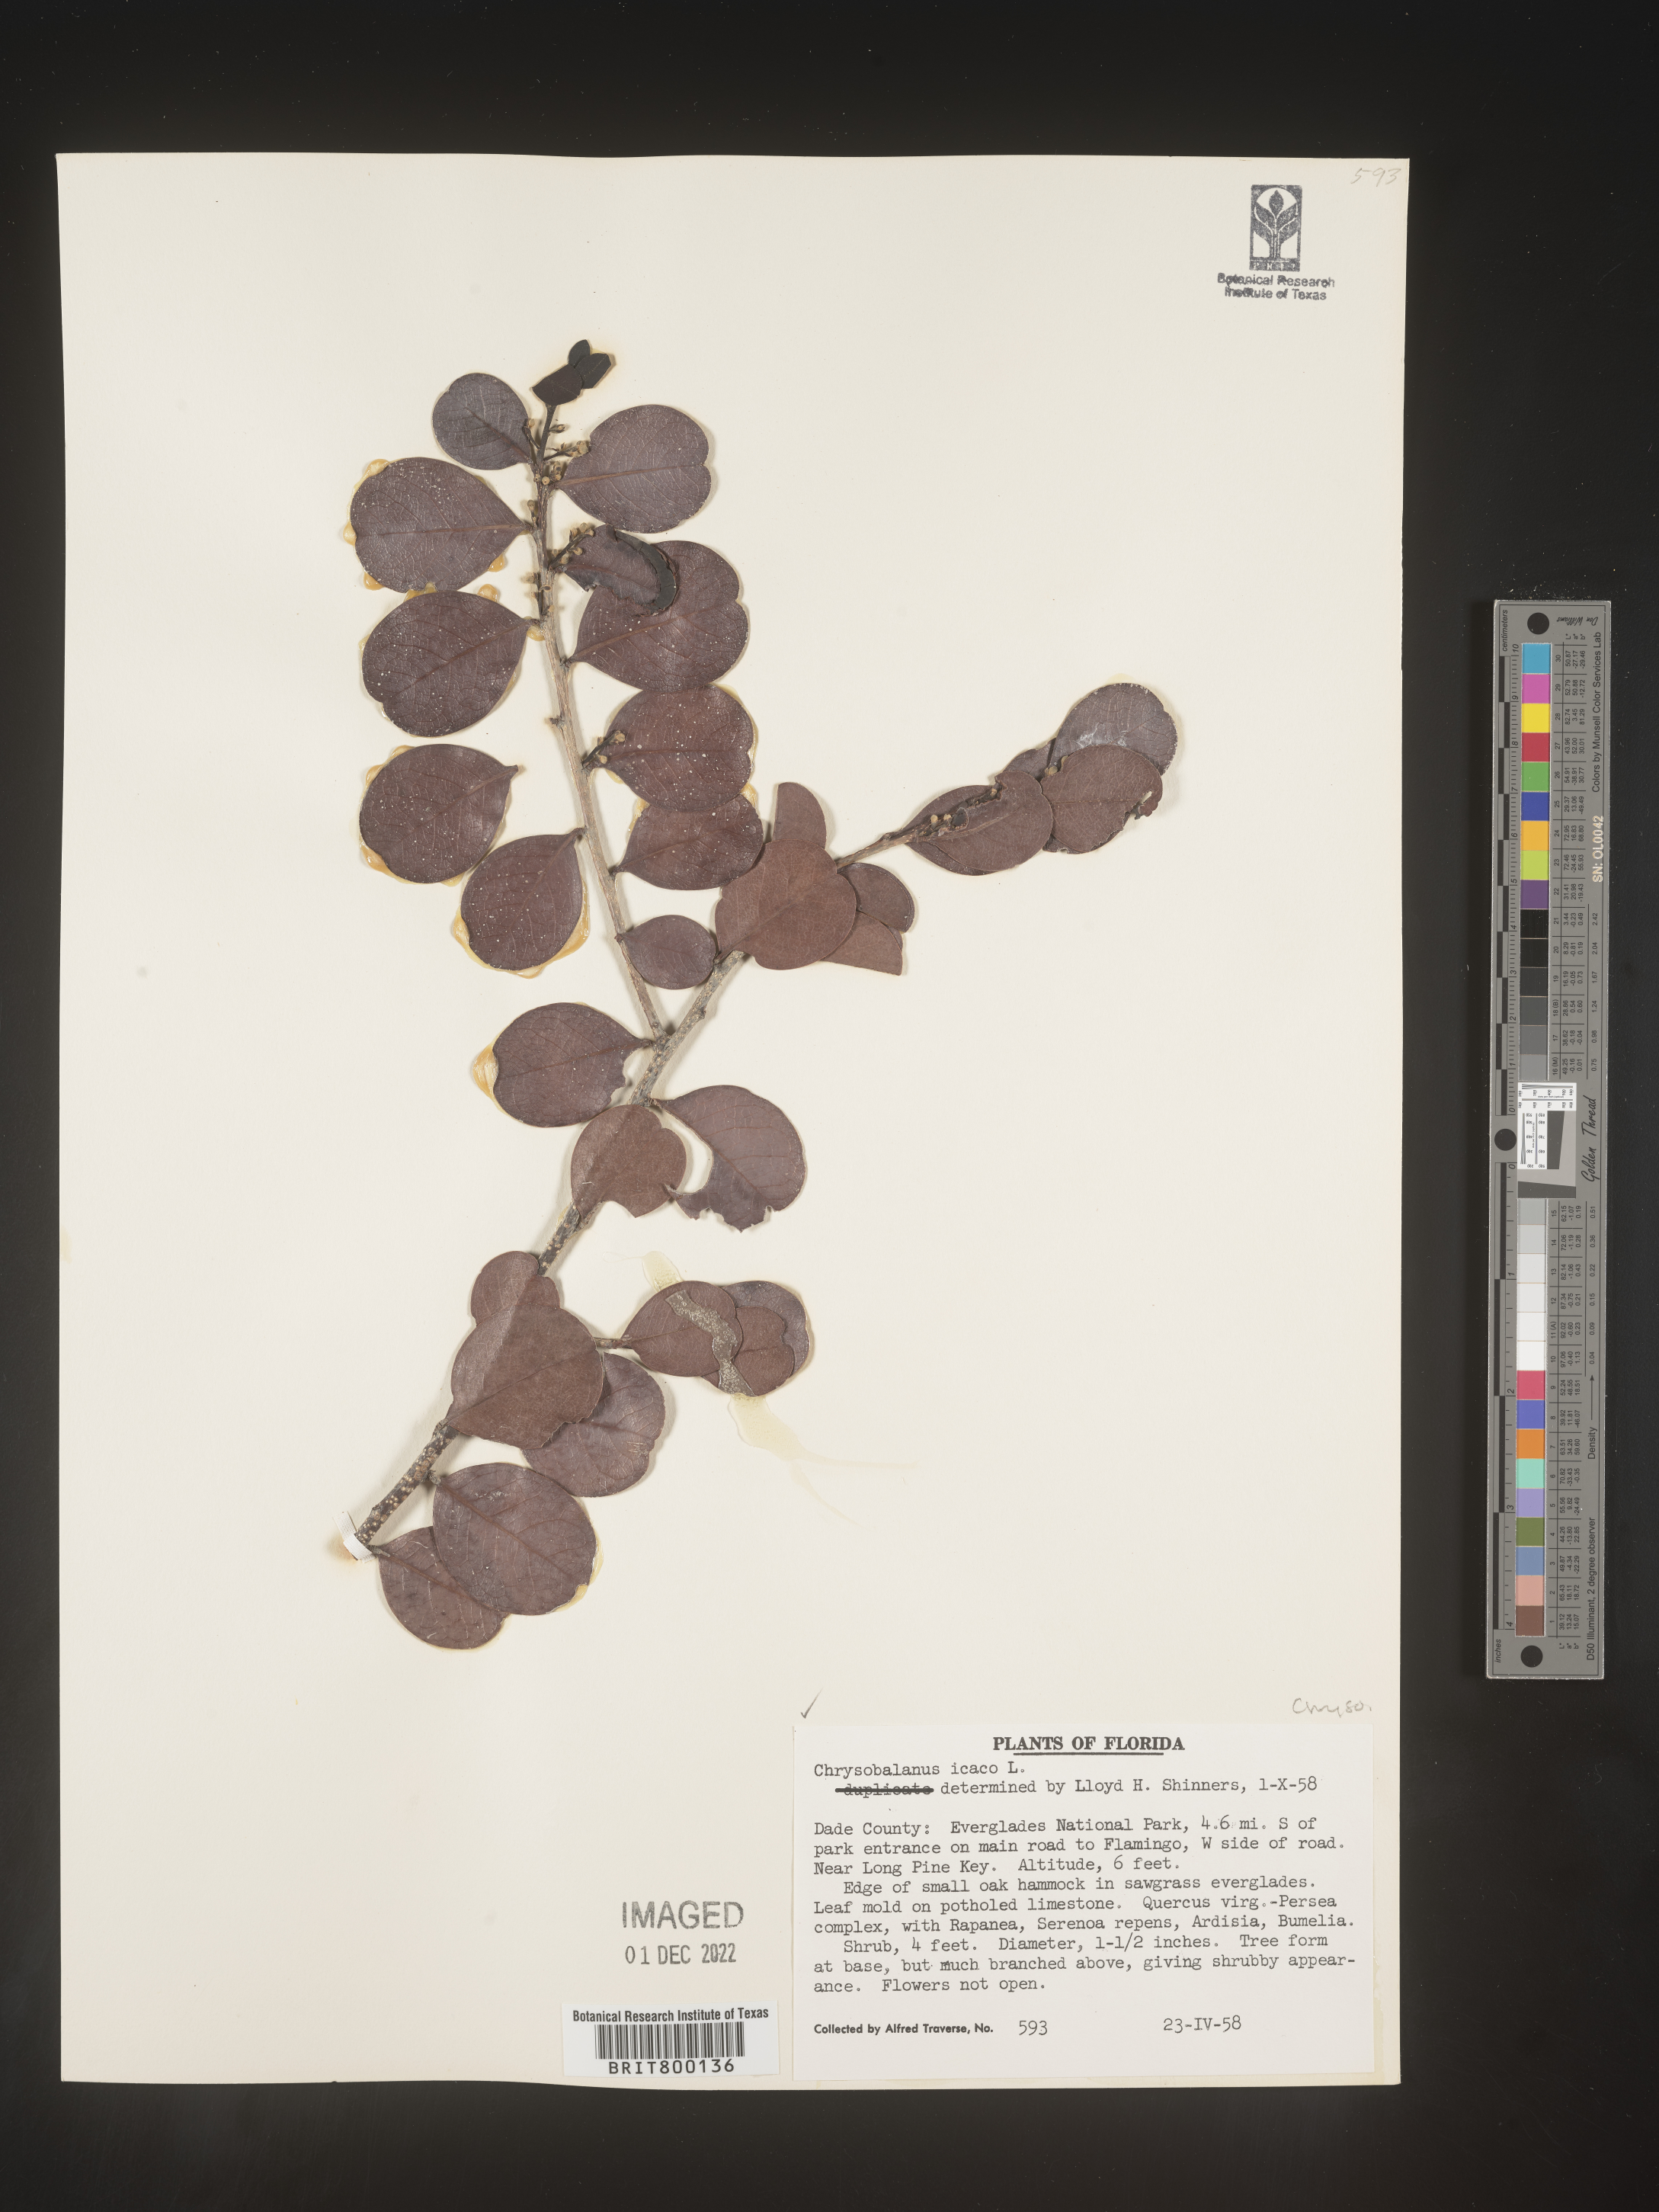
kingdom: Plantae
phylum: Tracheophyta
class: Magnoliopsida
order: Malpighiales
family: Chrysobalanaceae
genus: Chrysobalanus
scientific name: Chrysobalanus icaco
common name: Coco plum
